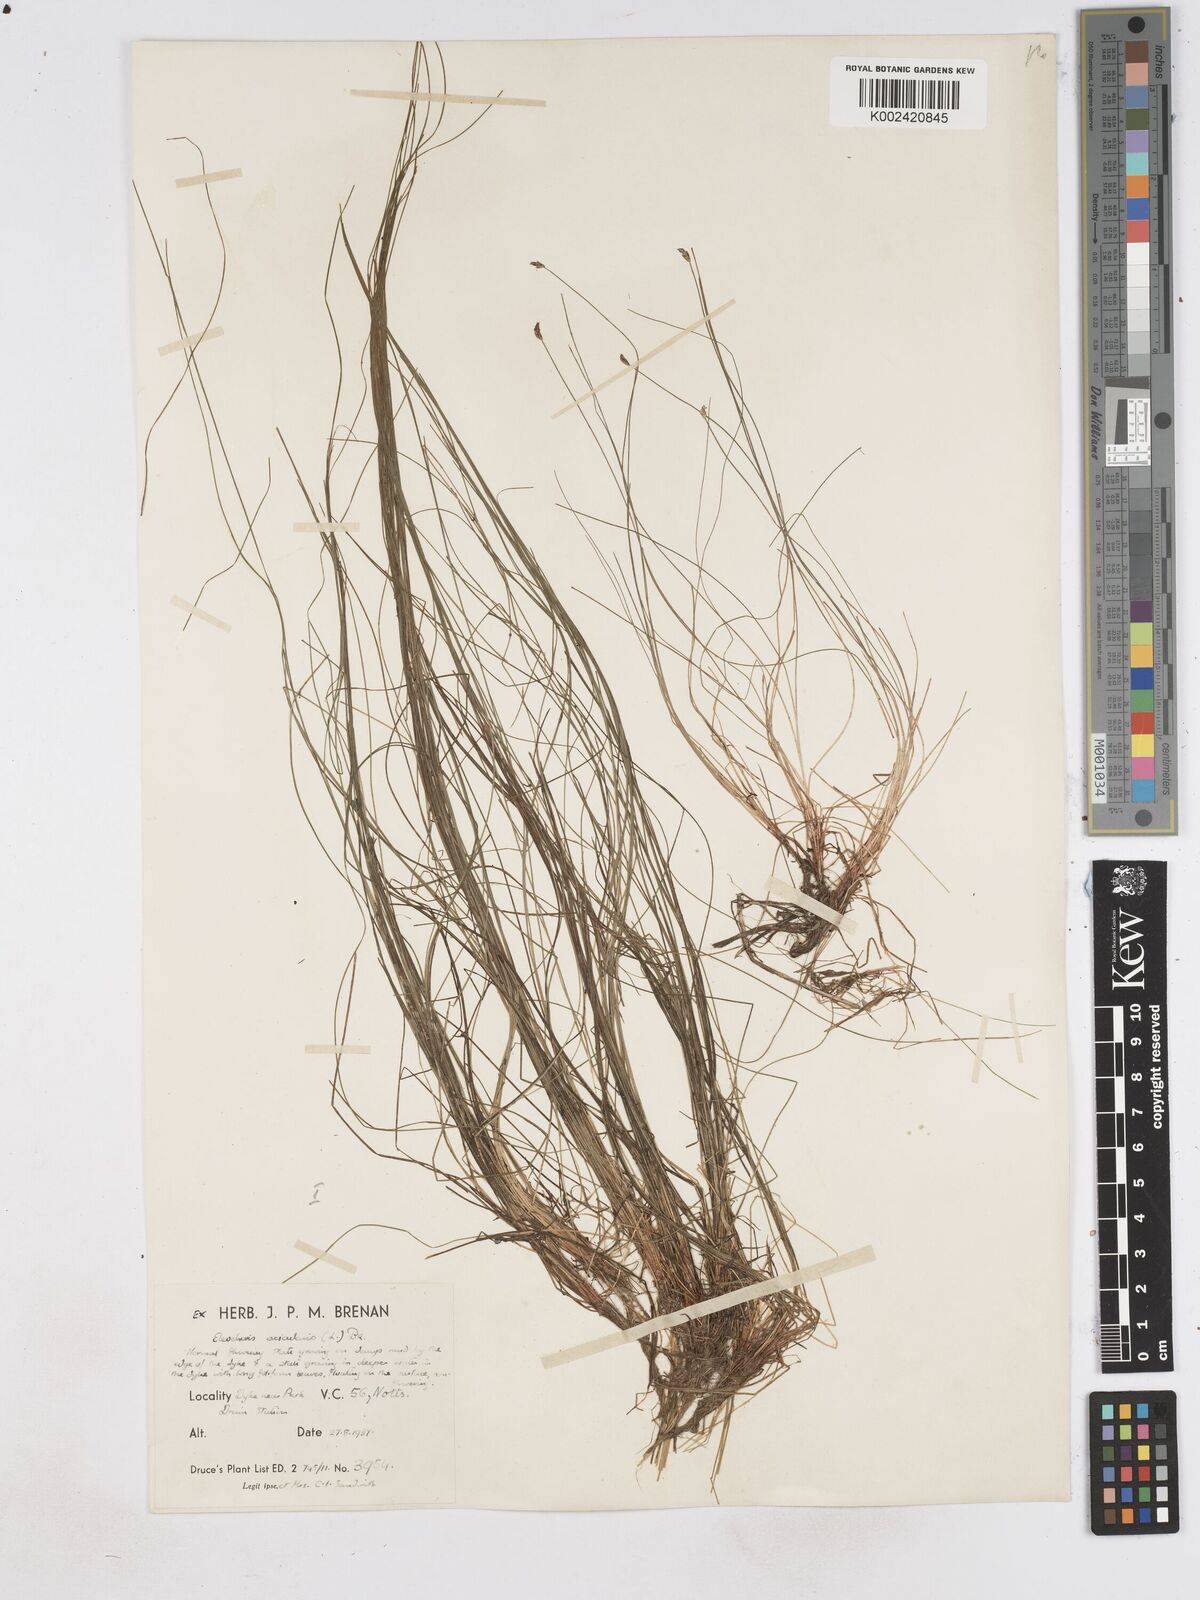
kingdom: Plantae
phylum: Tracheophyta
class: Liliopsida
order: Poales
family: Cyperaceae
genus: Eleocharis
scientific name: Eleocharis acicularis
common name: Needle spike-rush
